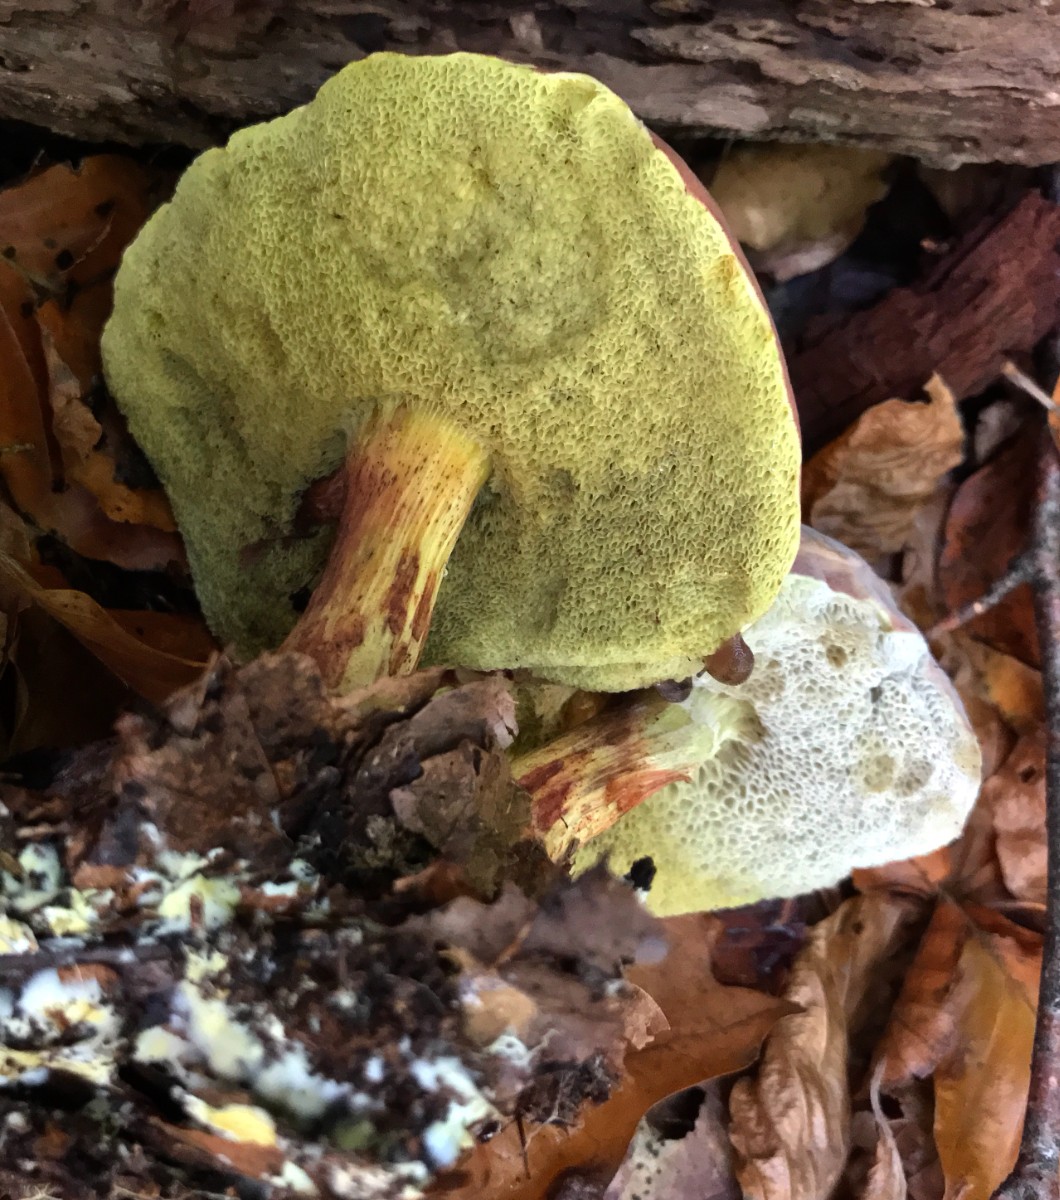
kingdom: Fungi
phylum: Basidiomycota
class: Agaricomycetes
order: Boletales
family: Boletaceae
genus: Xerocomellus
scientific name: Xerocomellus pruinatus
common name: dugget rørhat
